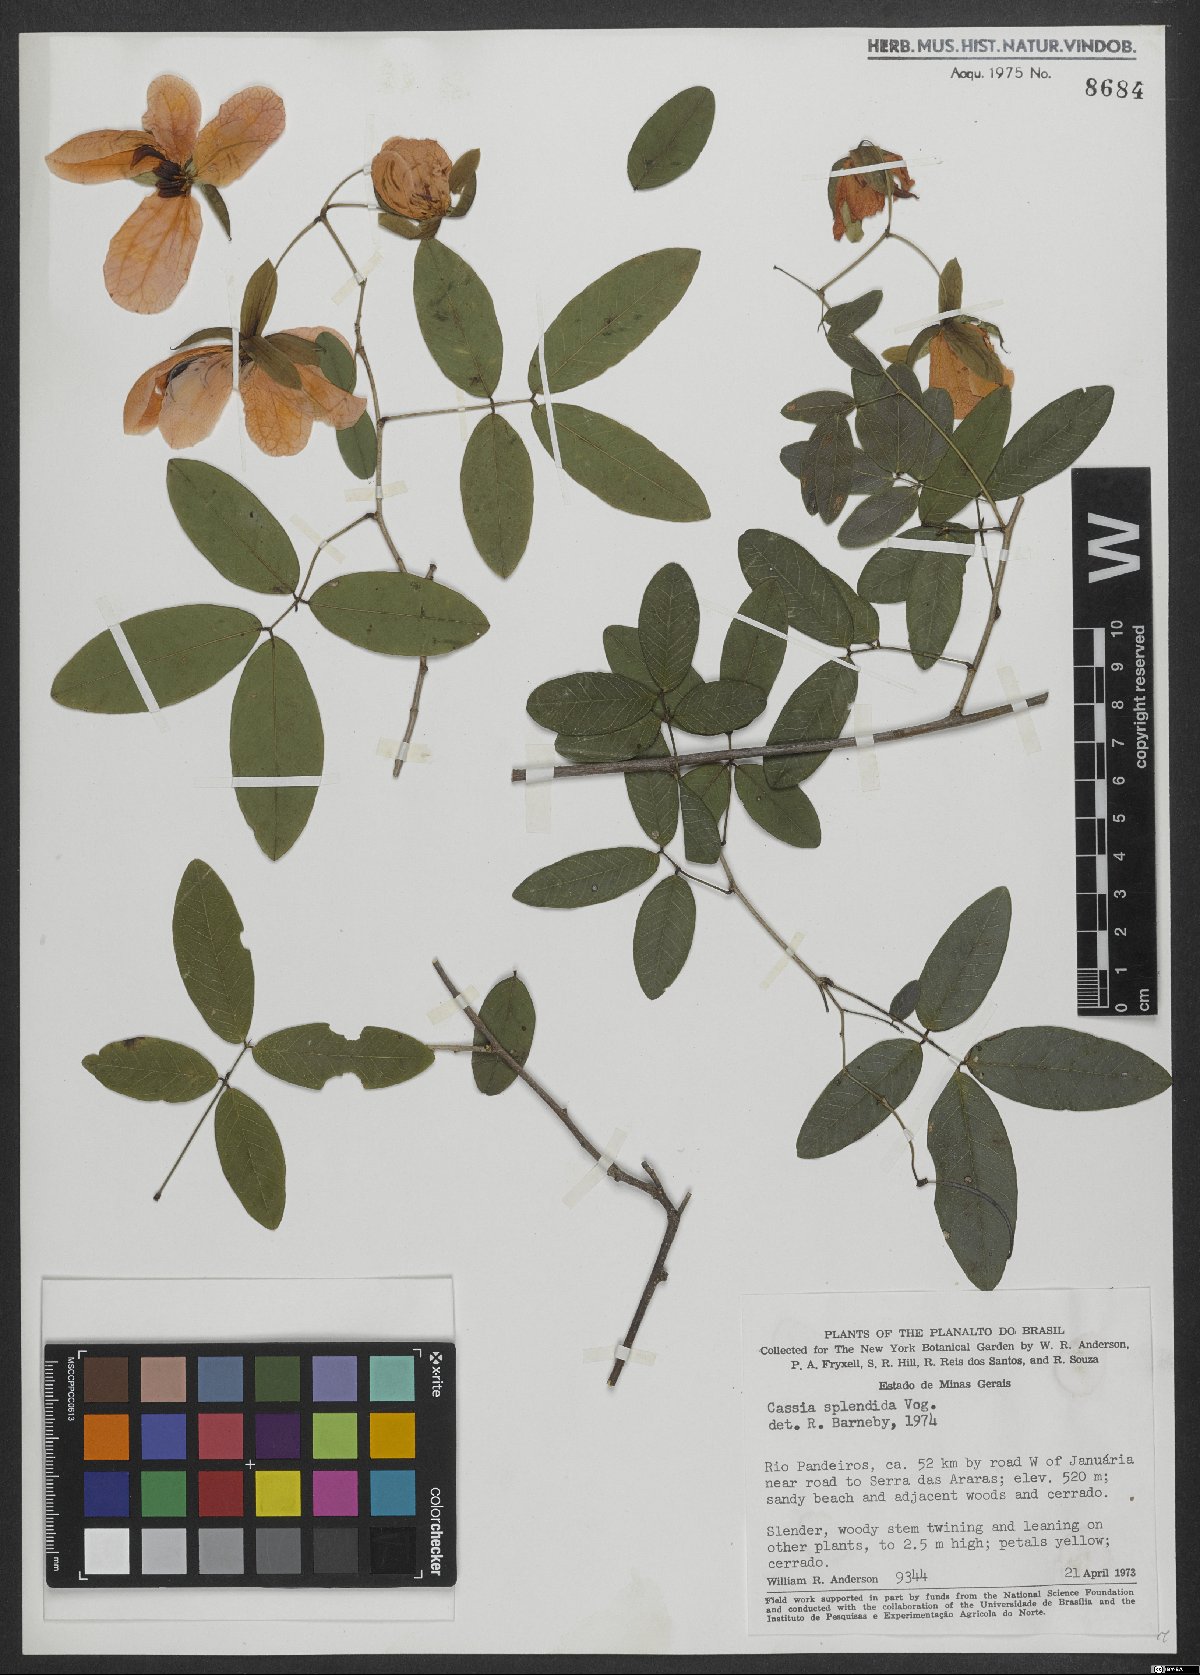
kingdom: Plantae
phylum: Tracheophyta
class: Magnoliopsida
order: Fabales
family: Fabaceae
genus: Senna
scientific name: Senna splendida
